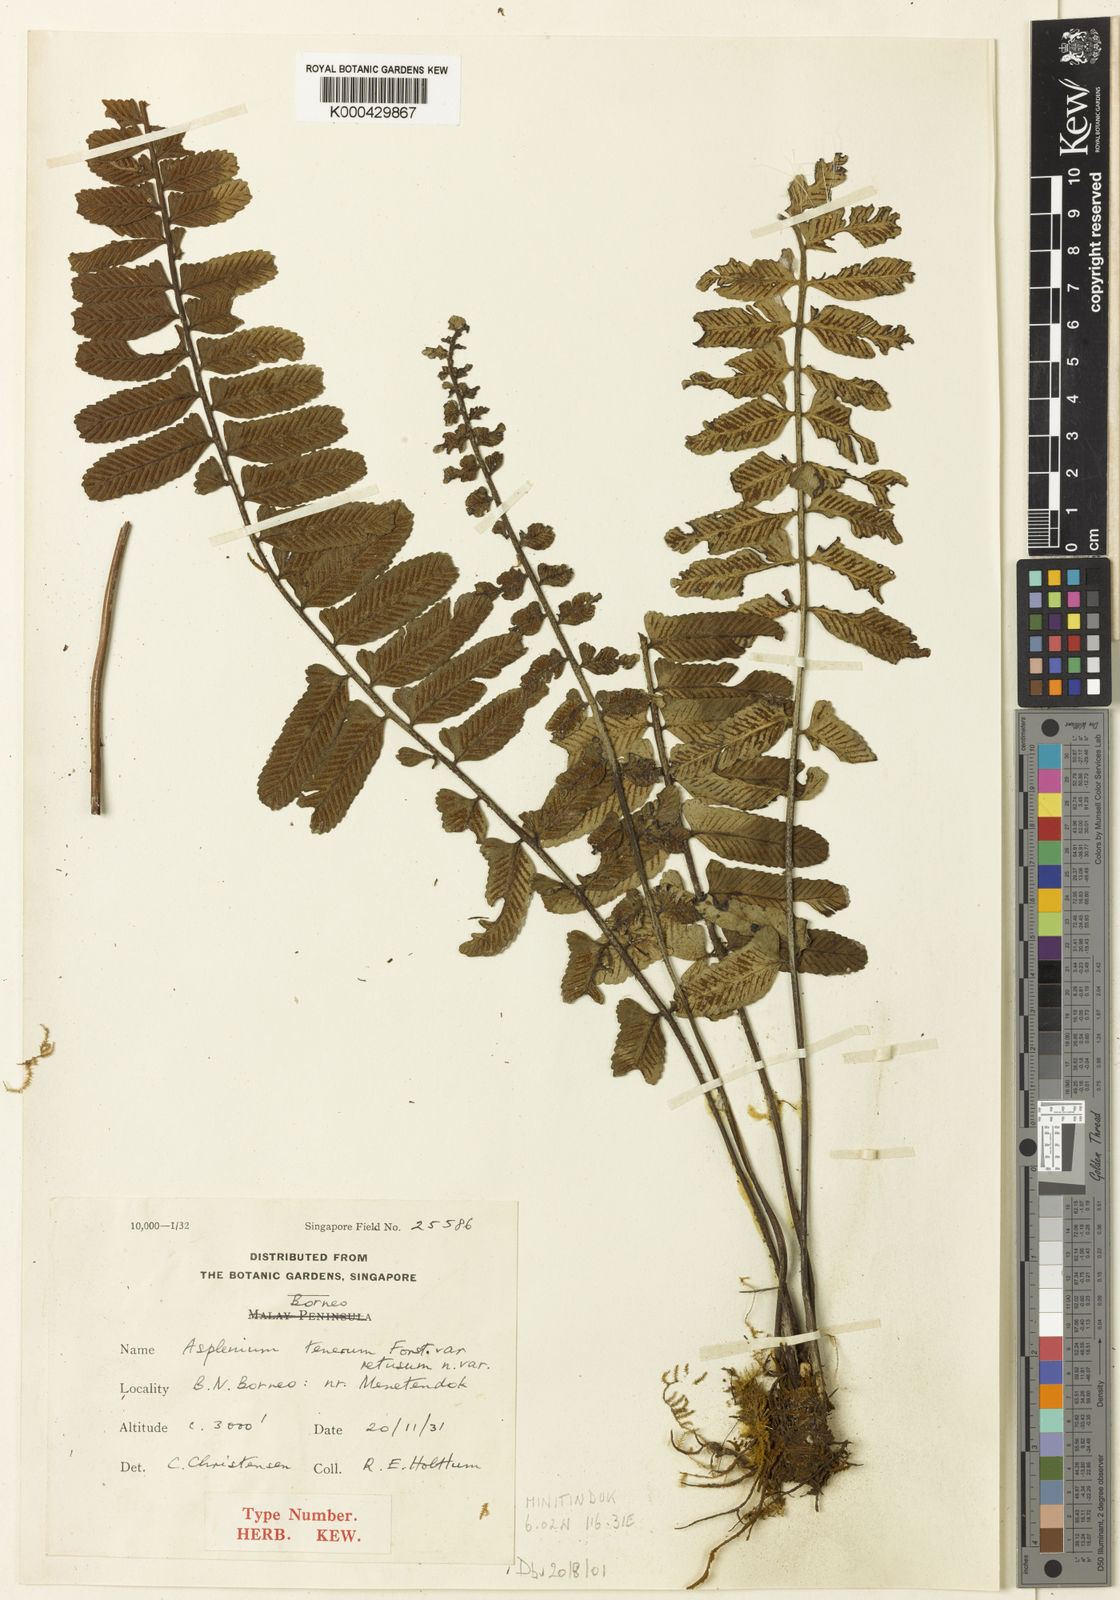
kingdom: Plantae
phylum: Tracheophyta
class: Polypodiopsida
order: Polypodiales
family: Aspleniaceae
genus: Asplenium
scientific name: Asplenium tenerum
